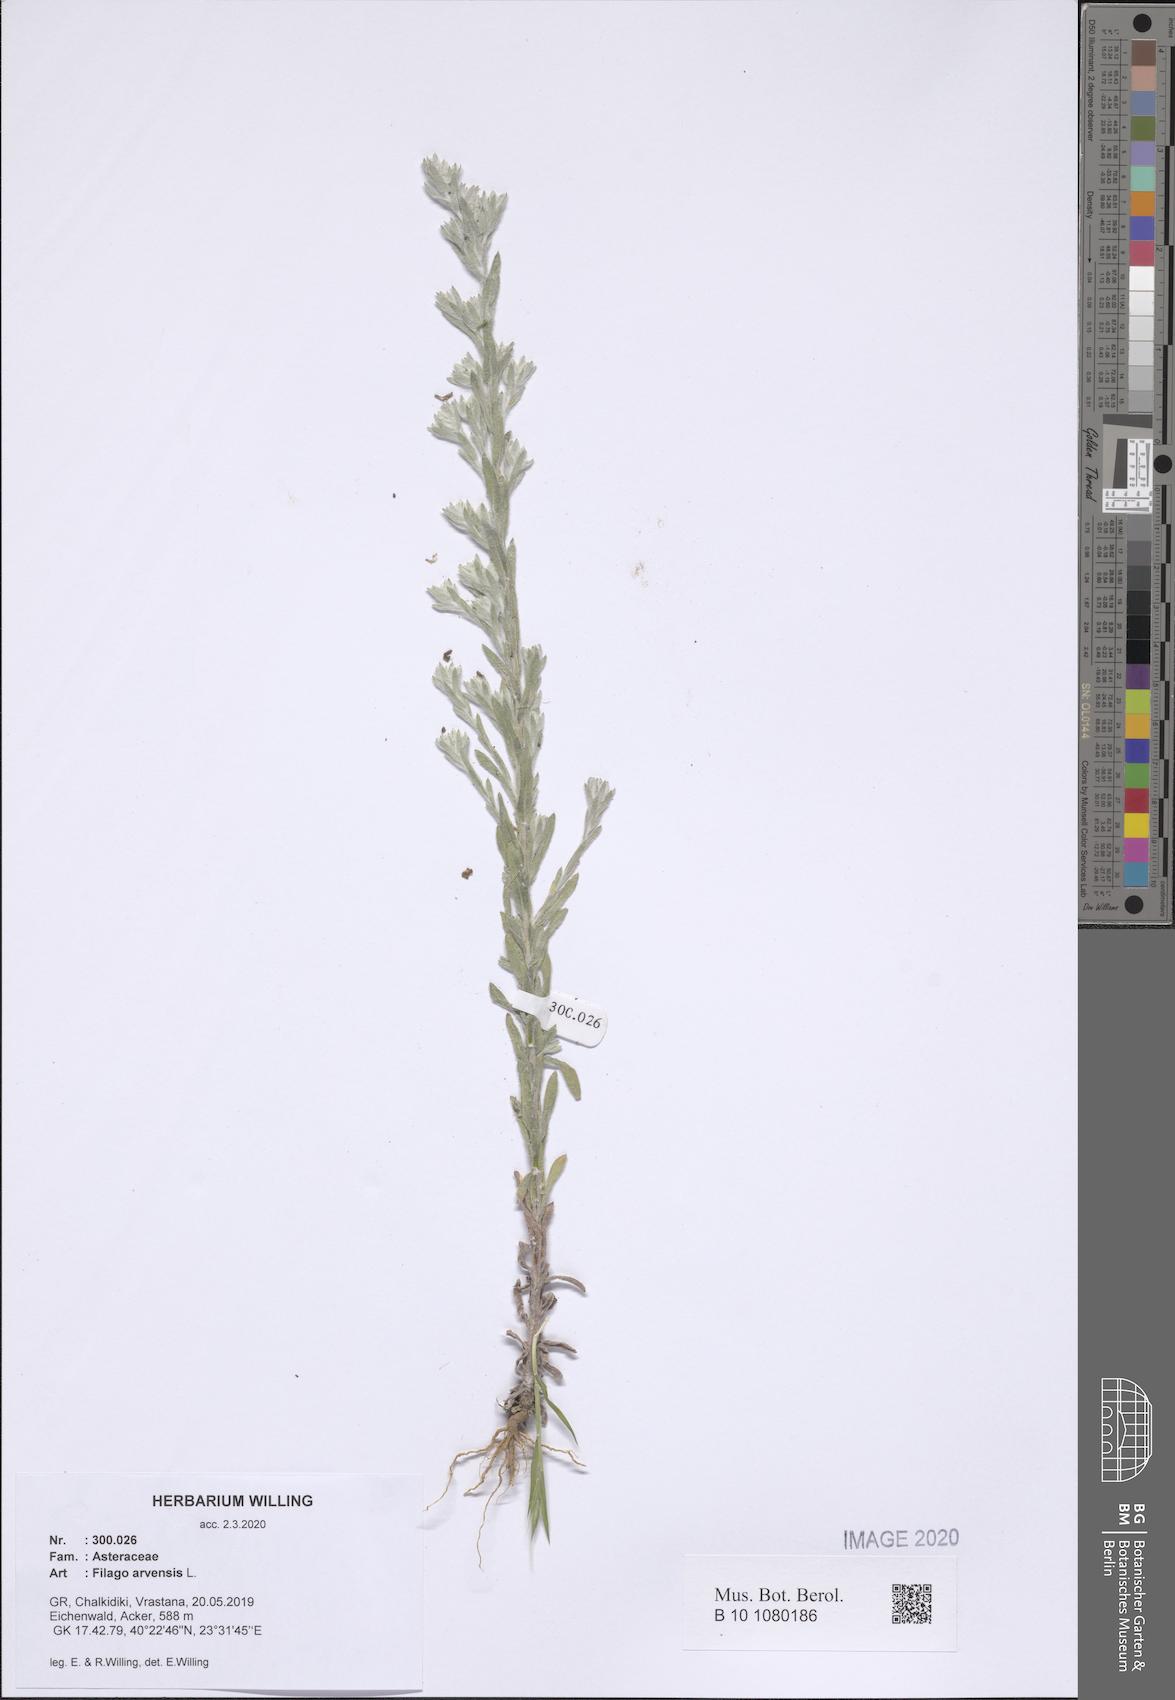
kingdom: Plantae
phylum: Tracheophyta
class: Magnoliopsida
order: Asterales
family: Asteraceae
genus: Filago
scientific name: Filago arvensis
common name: Field cudweed
